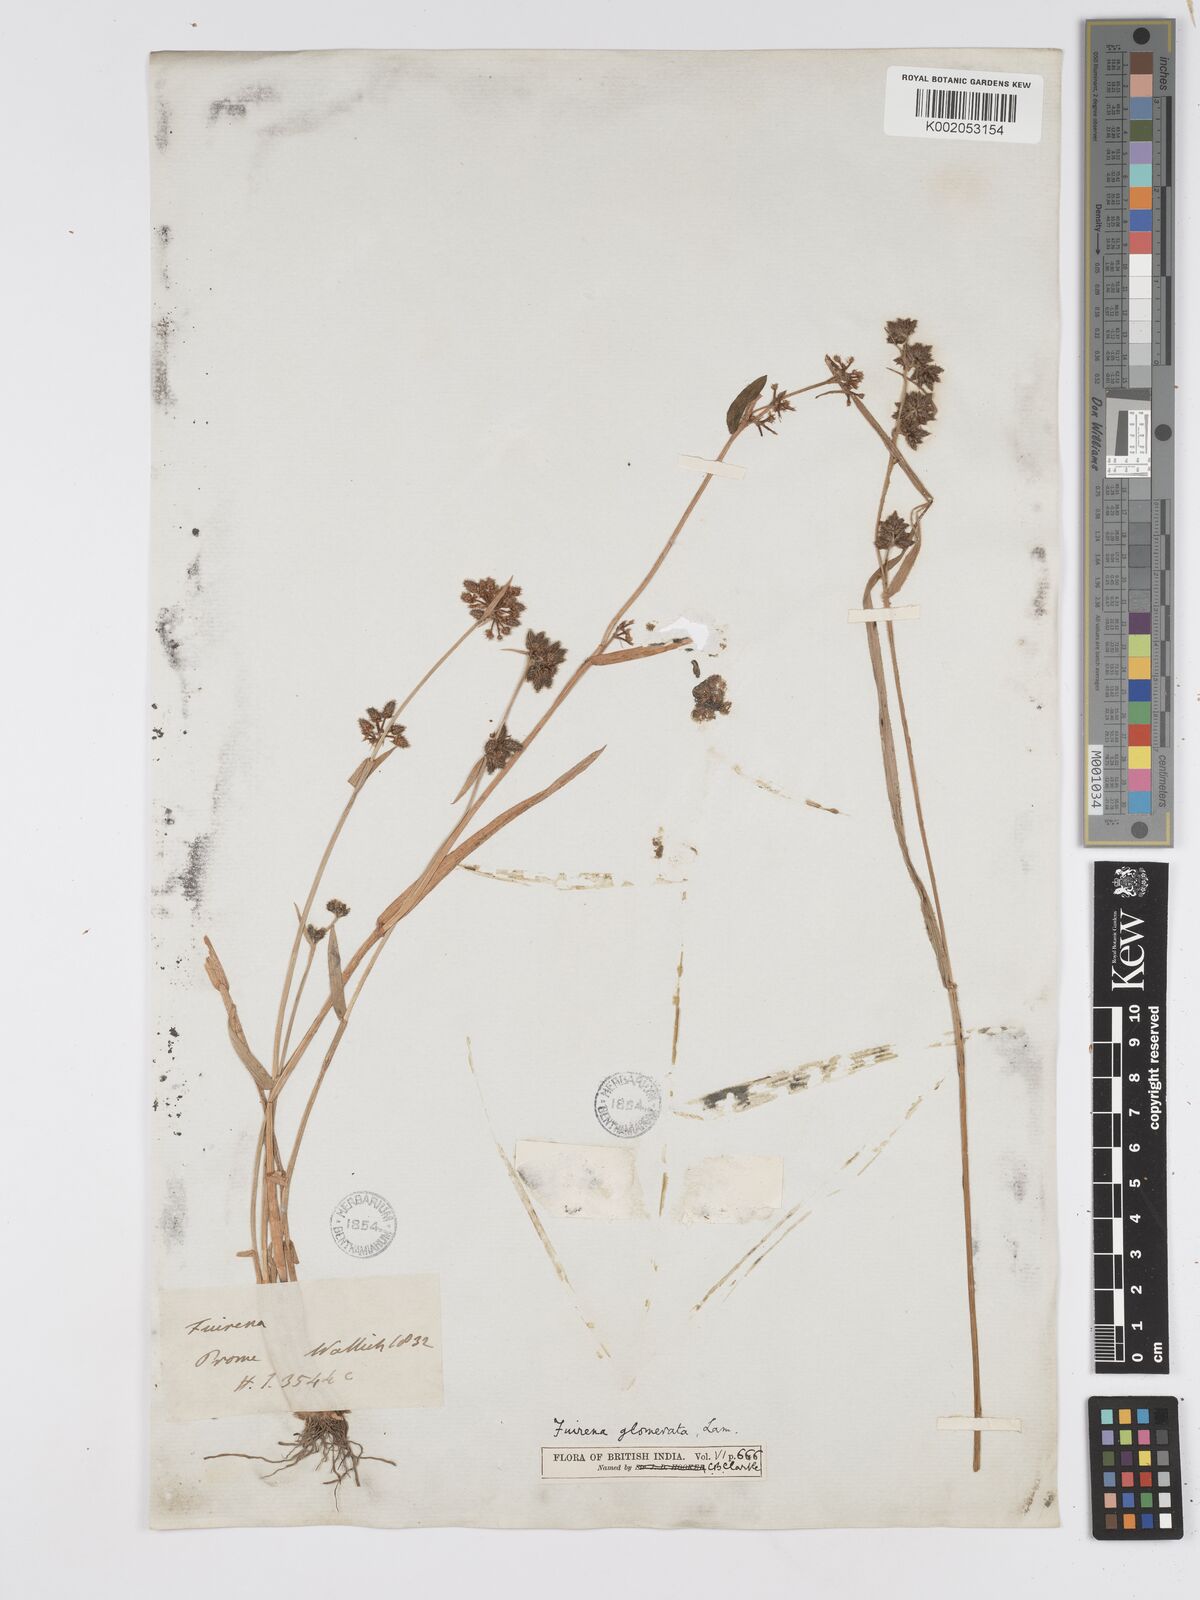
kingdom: Plantae
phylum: Tracheophyta
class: Liliopsida
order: Poales
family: Cyperaceae
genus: Fuirena
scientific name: Fuirena ciliaris
